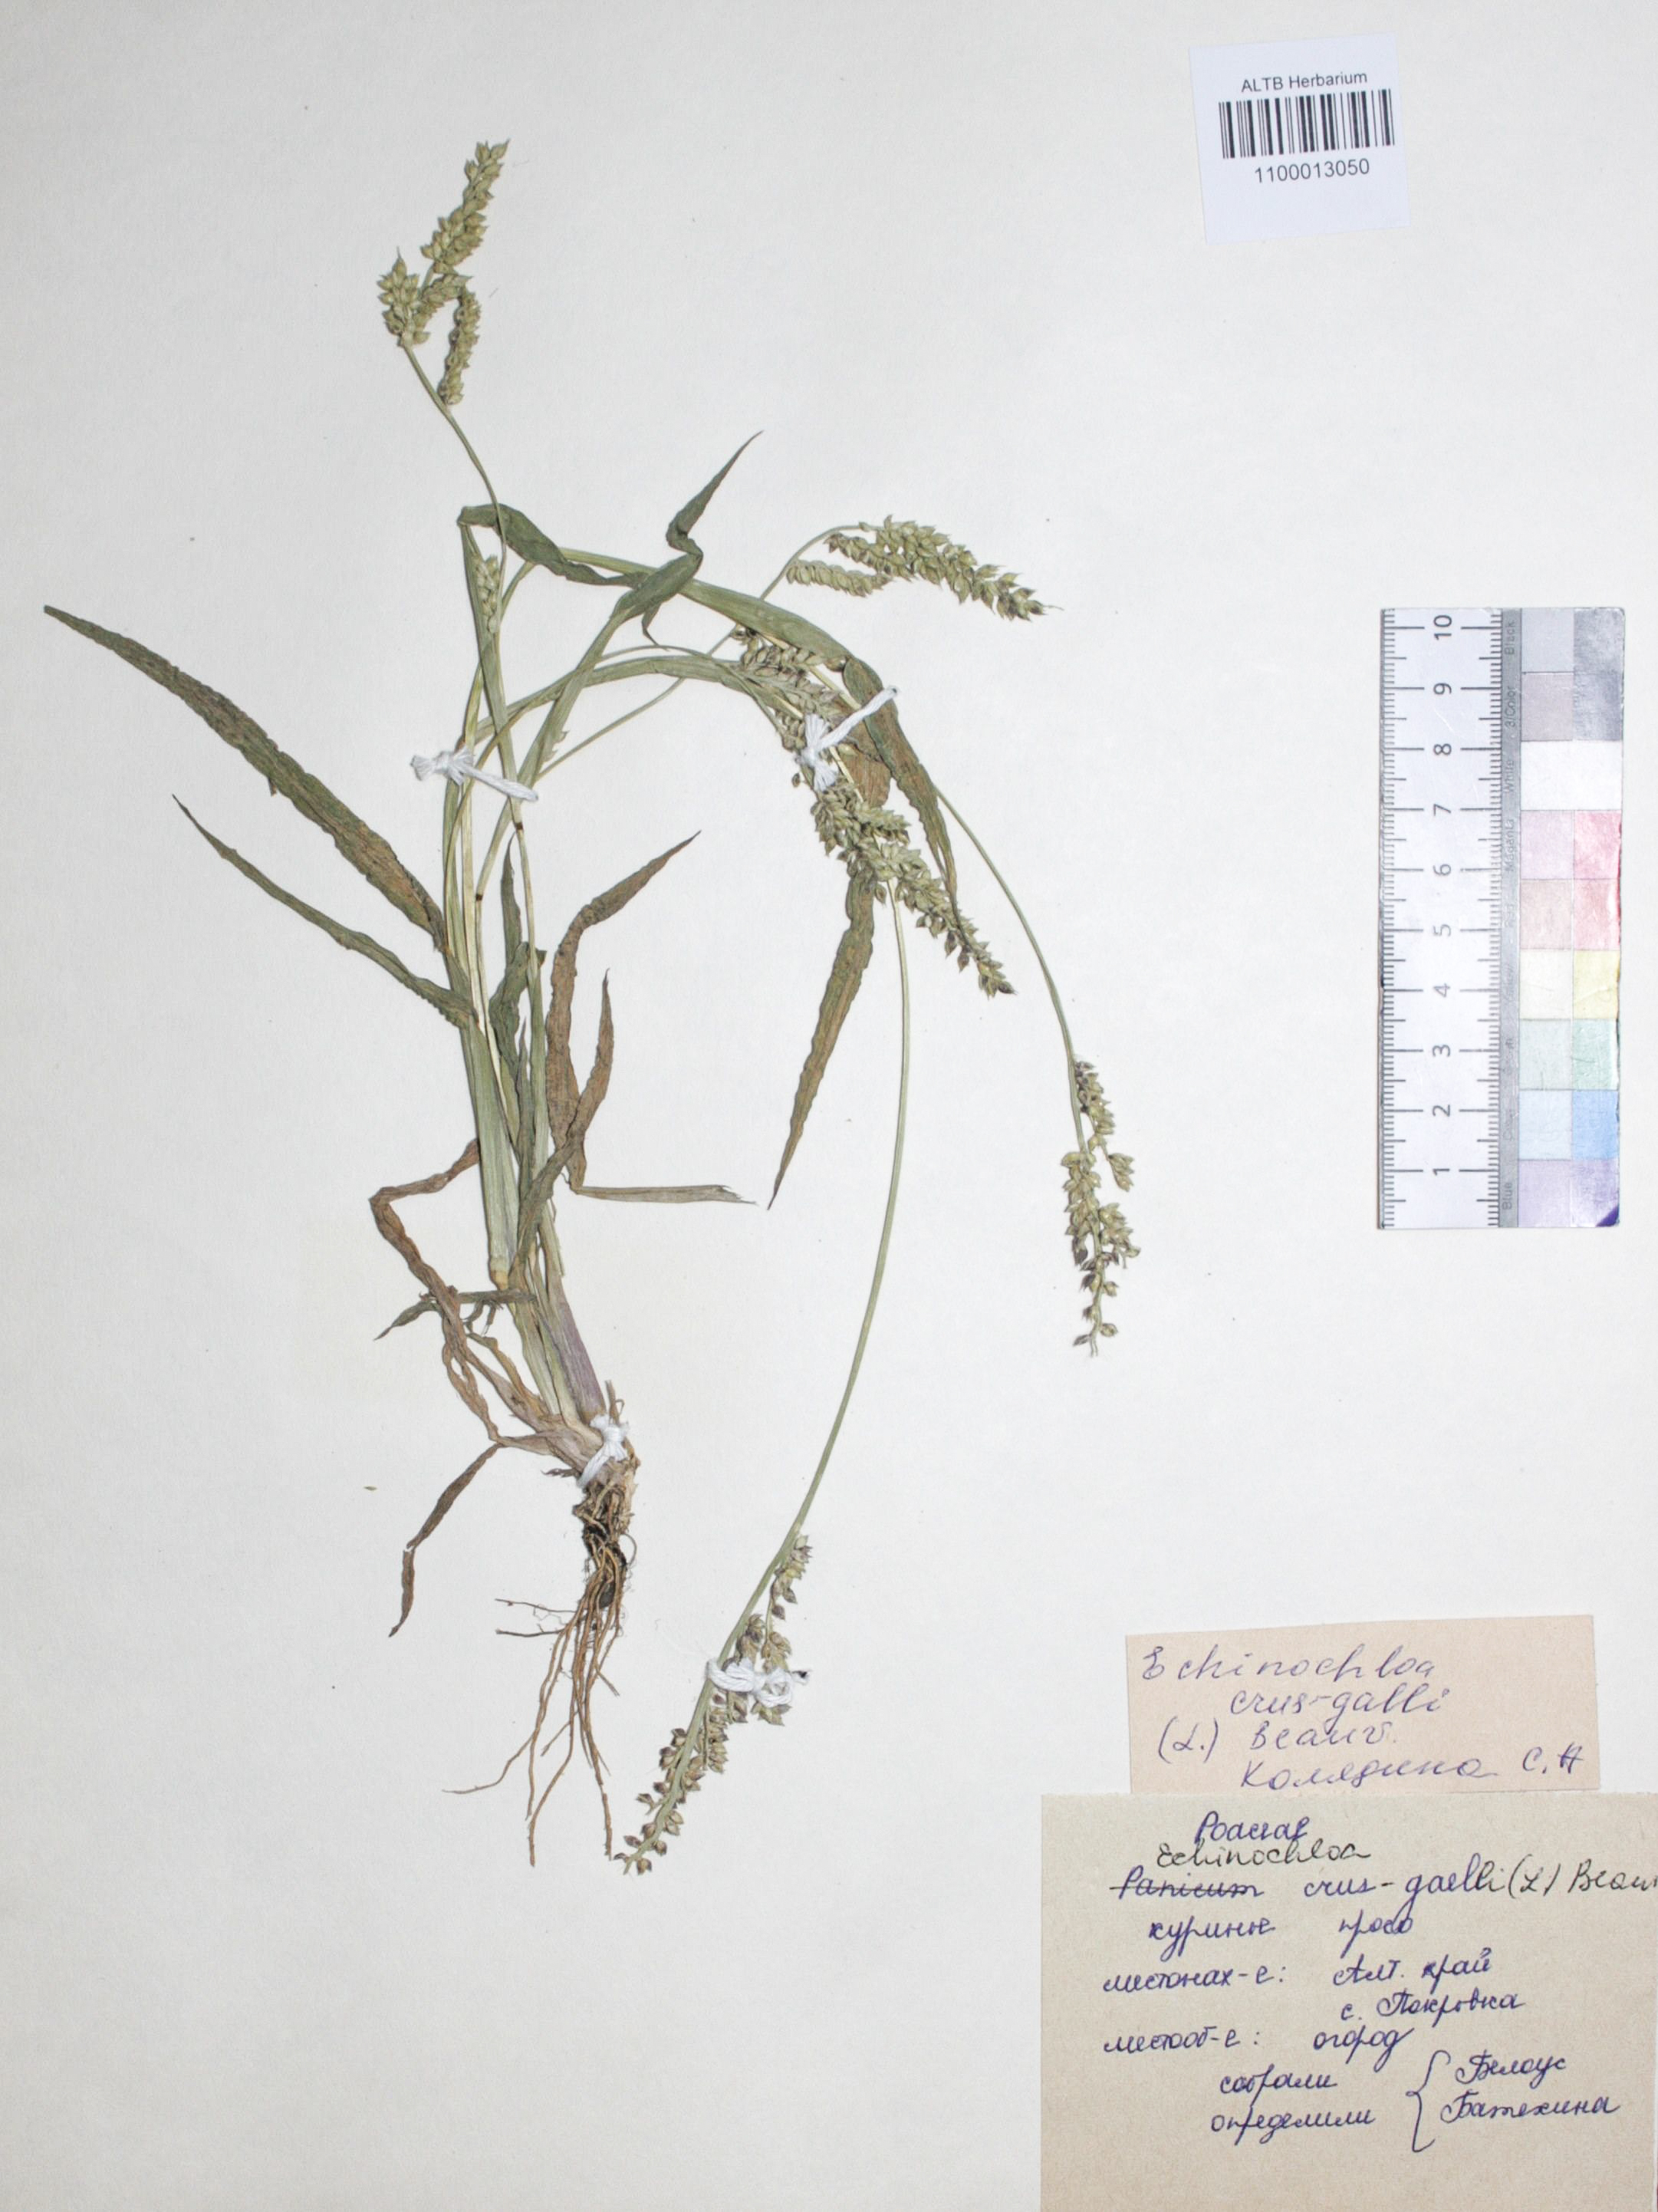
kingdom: Plantae
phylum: Tracheophyta
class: Liliopsida
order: Poales
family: Poaceae
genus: Echinochloa
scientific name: Echinochloa crus-galli
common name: Cockspur
